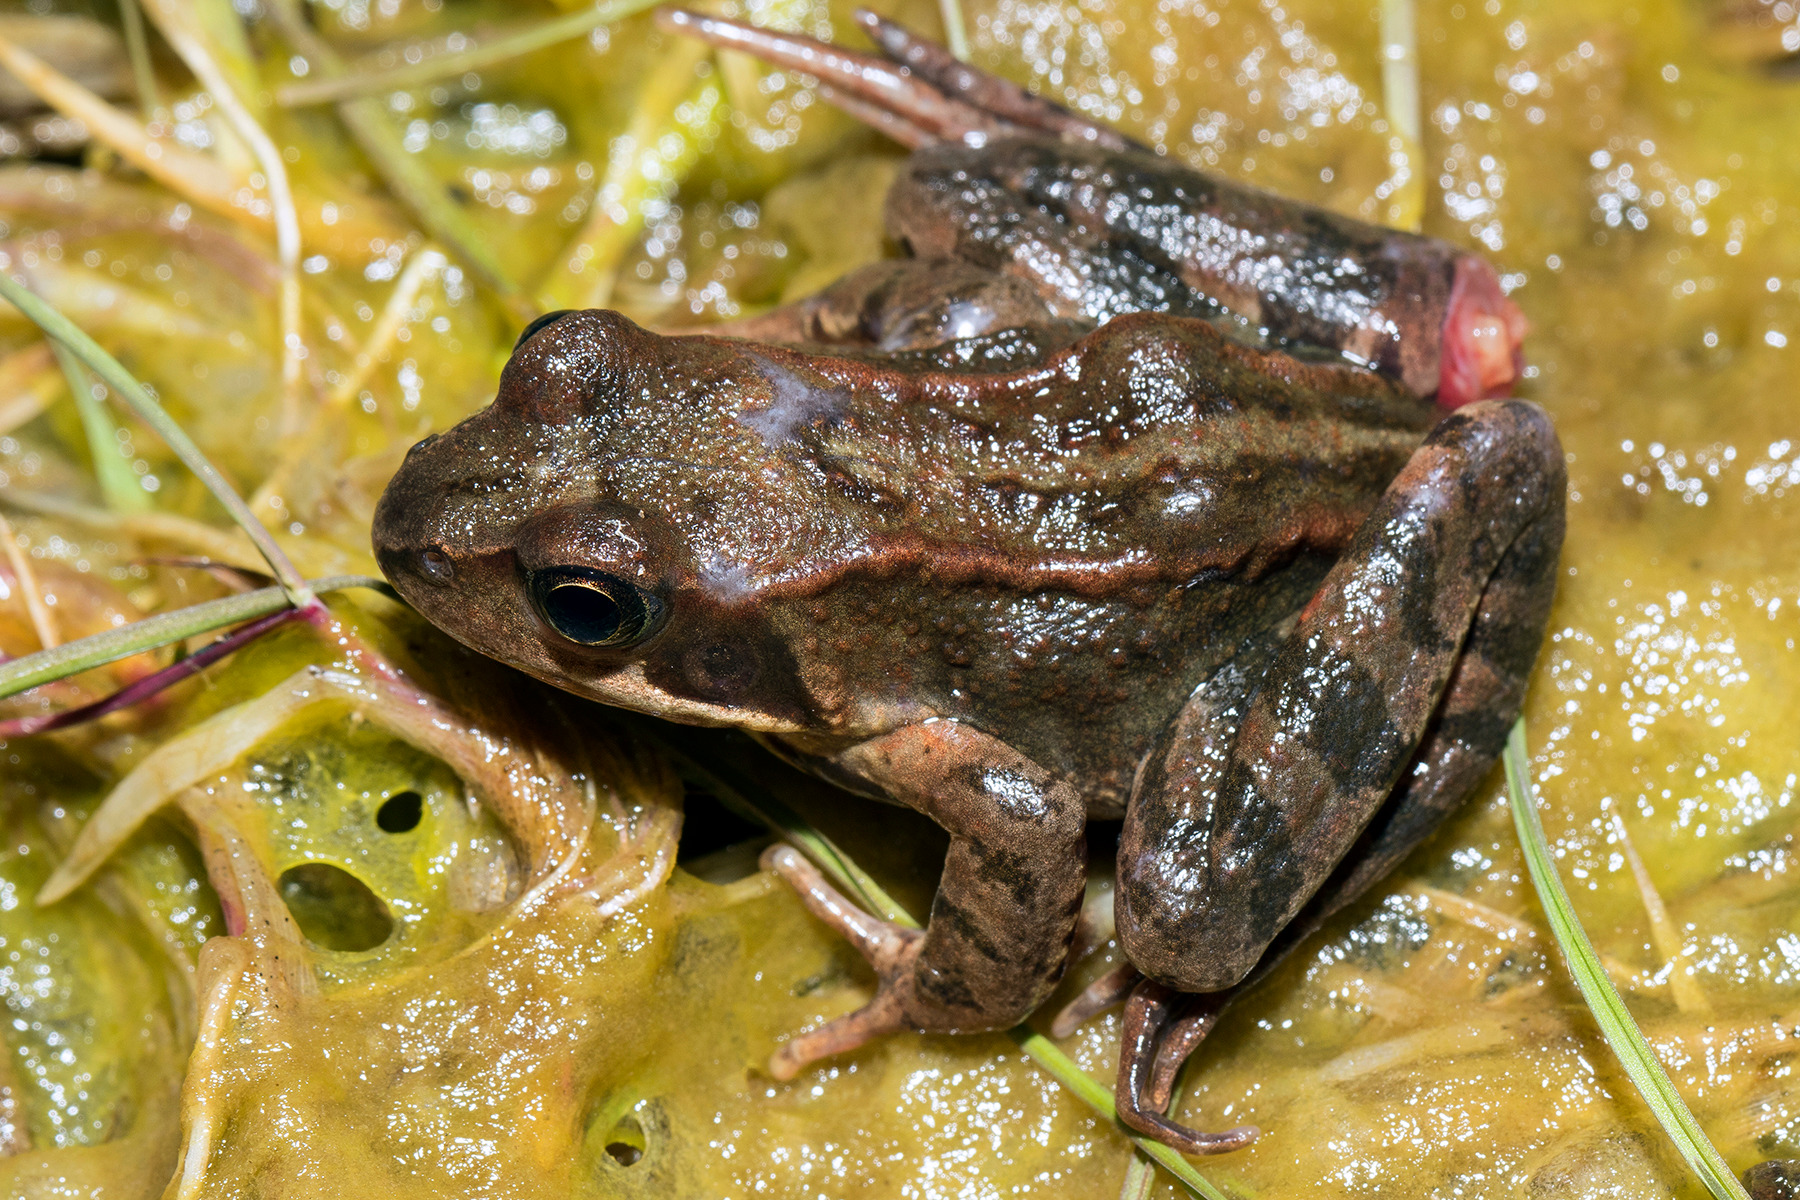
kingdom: Animalia
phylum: Chordata
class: Amphibia
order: Anura
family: Ranidae
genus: Rana
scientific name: Rana temporaria
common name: Butsnudet frø
